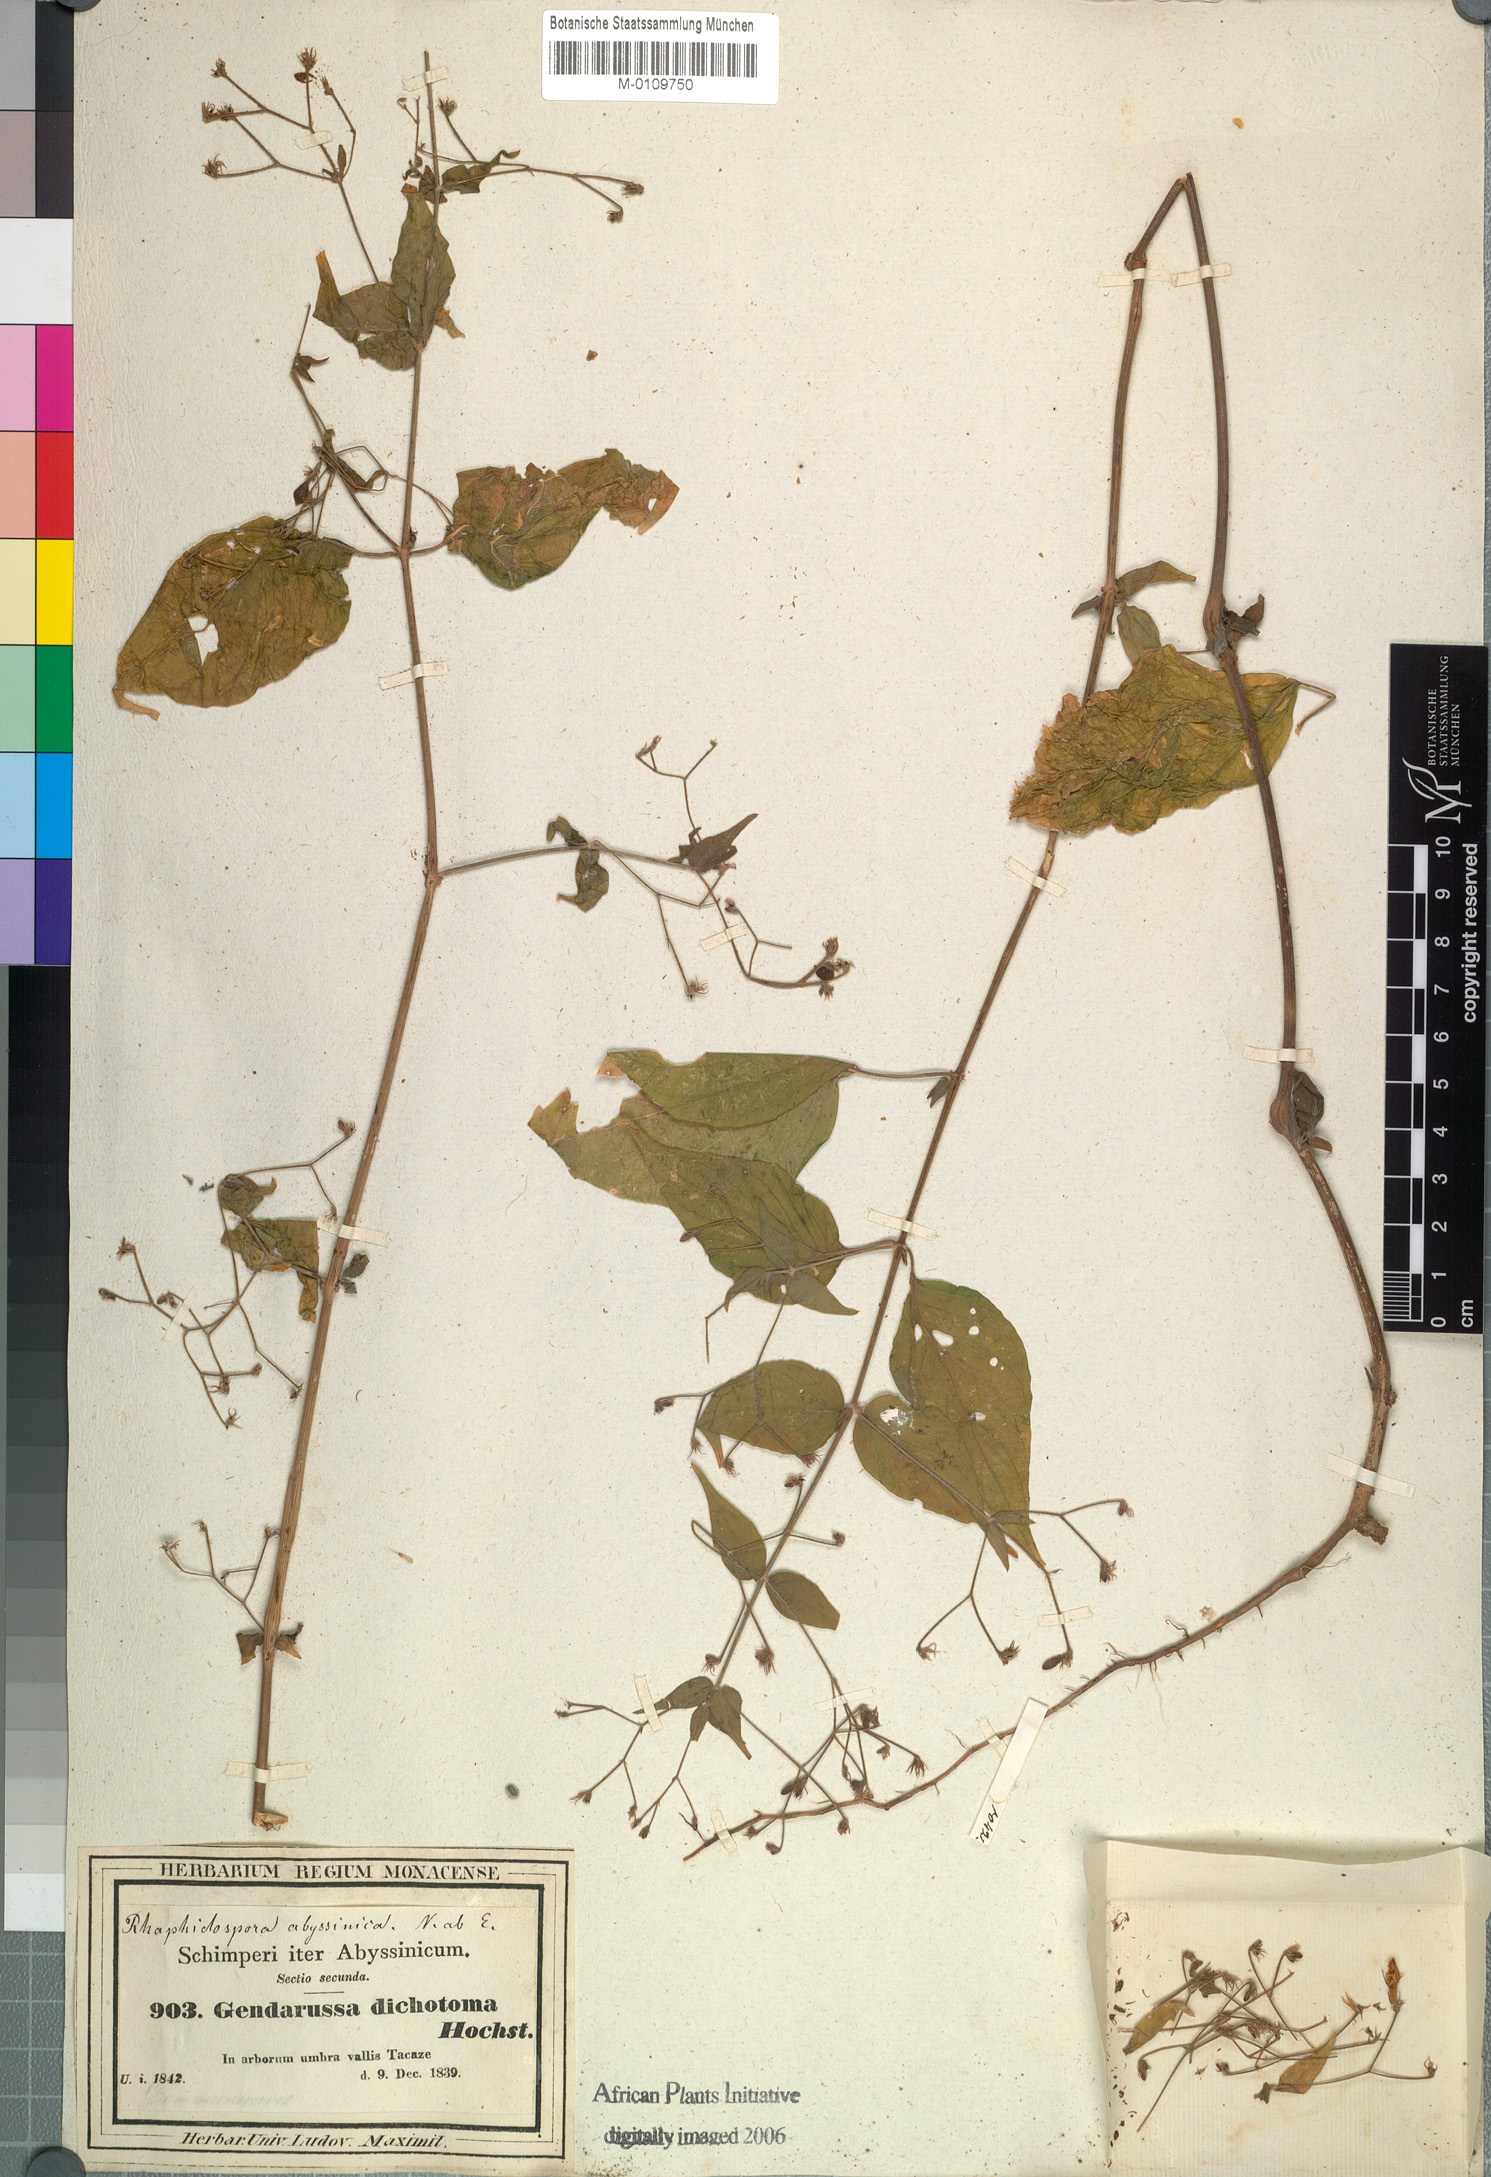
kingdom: Plantae
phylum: Tracheophyta
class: Magnoliopsida
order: Lamiales
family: Acanthaceae
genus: Justicia
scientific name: Justicia scandens
